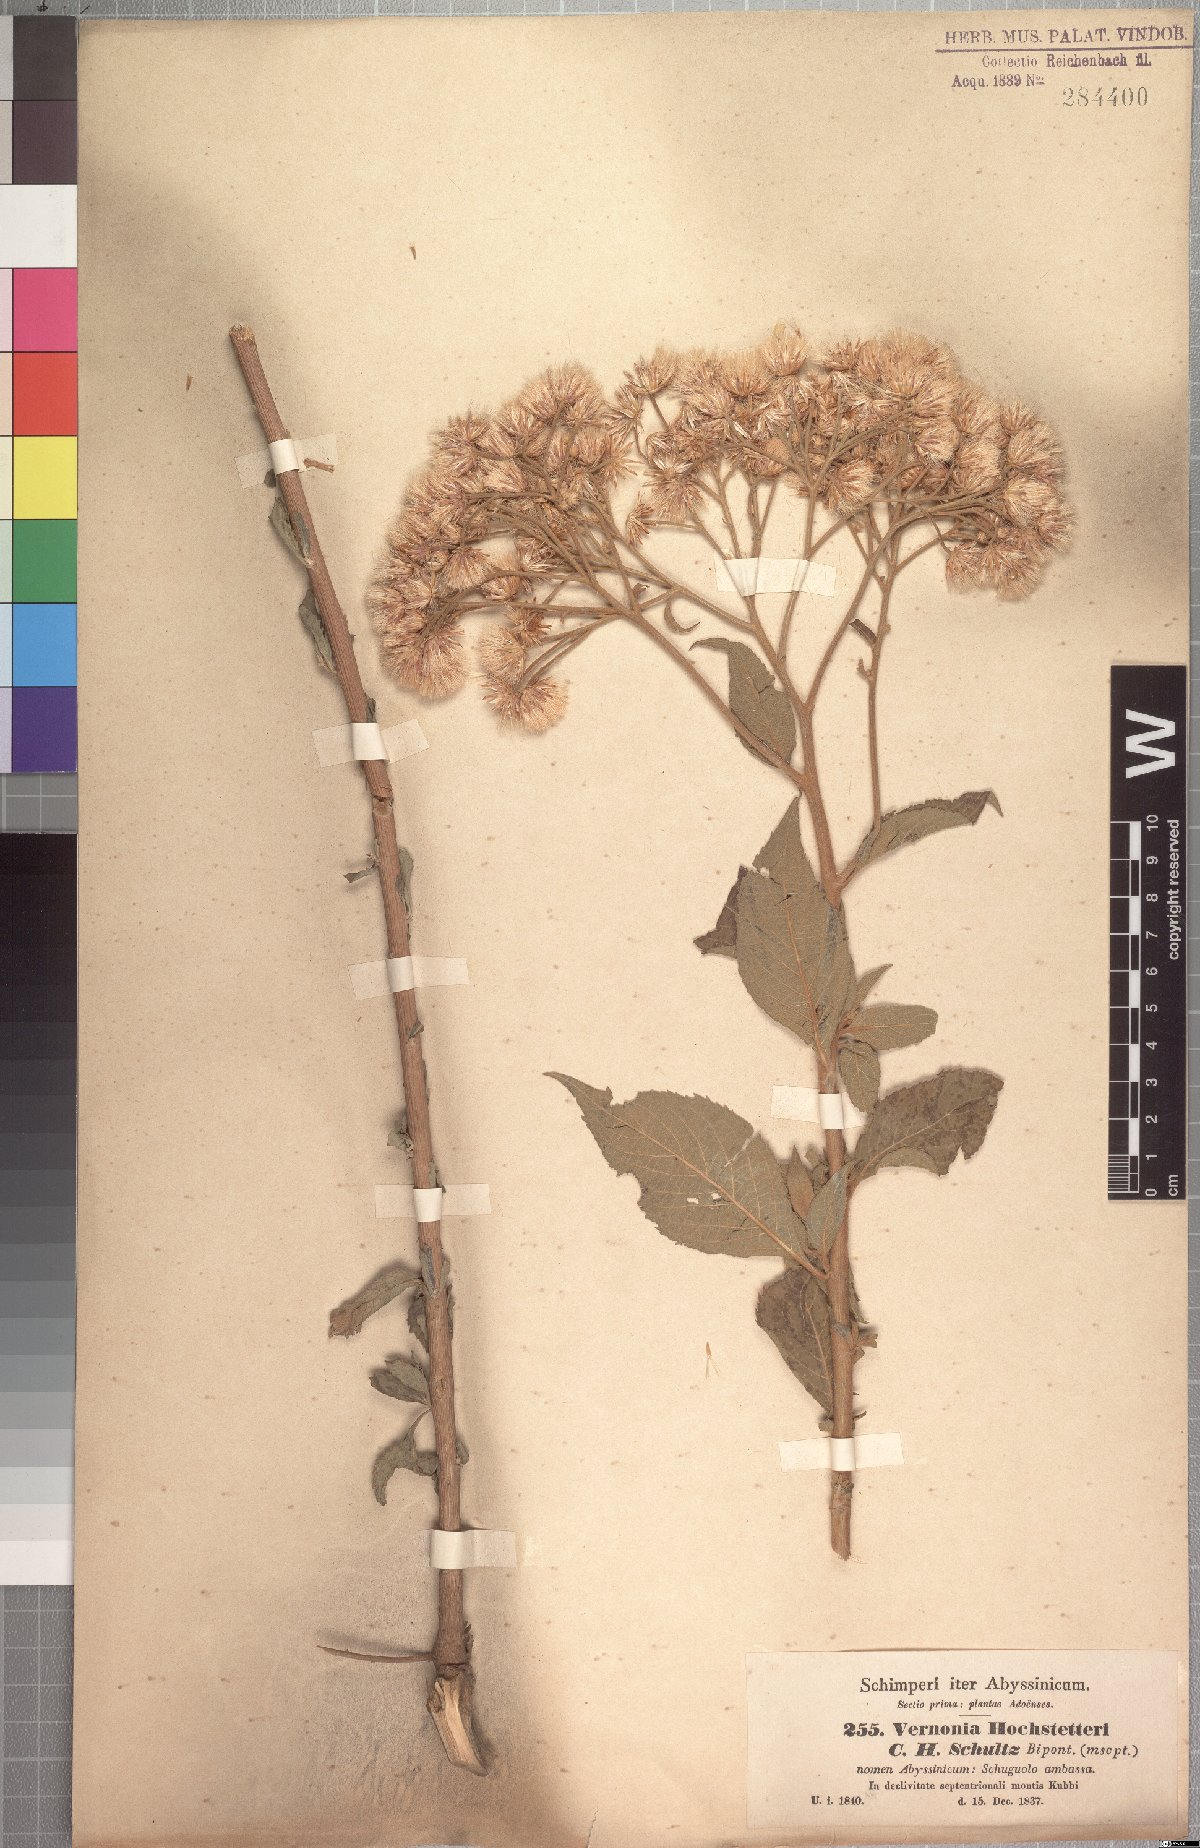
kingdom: Plantae
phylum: Tracheophyta
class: Magnoliopsida
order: Asterales
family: Asteraceae
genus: Vernonia
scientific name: Vernonia hochstetteri
